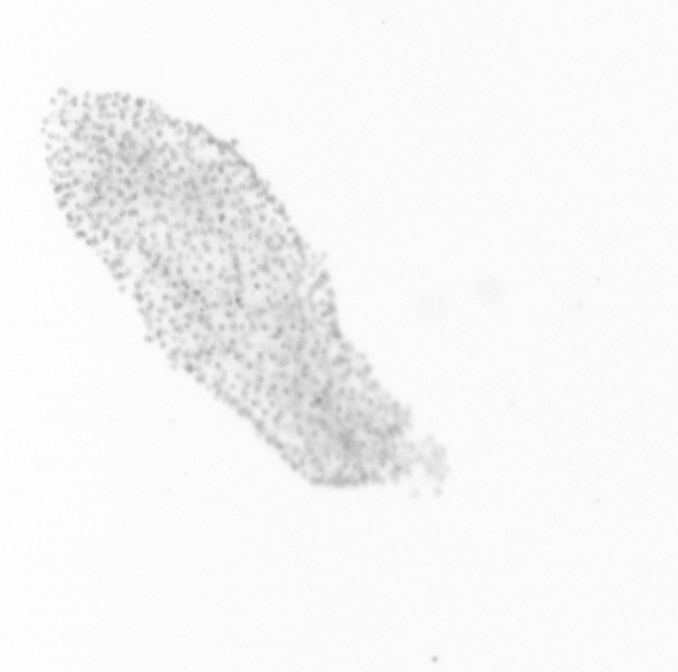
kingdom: Chromista
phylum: Ochrophyta
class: Bacillariophyceae
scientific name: Bacillariophyceae
